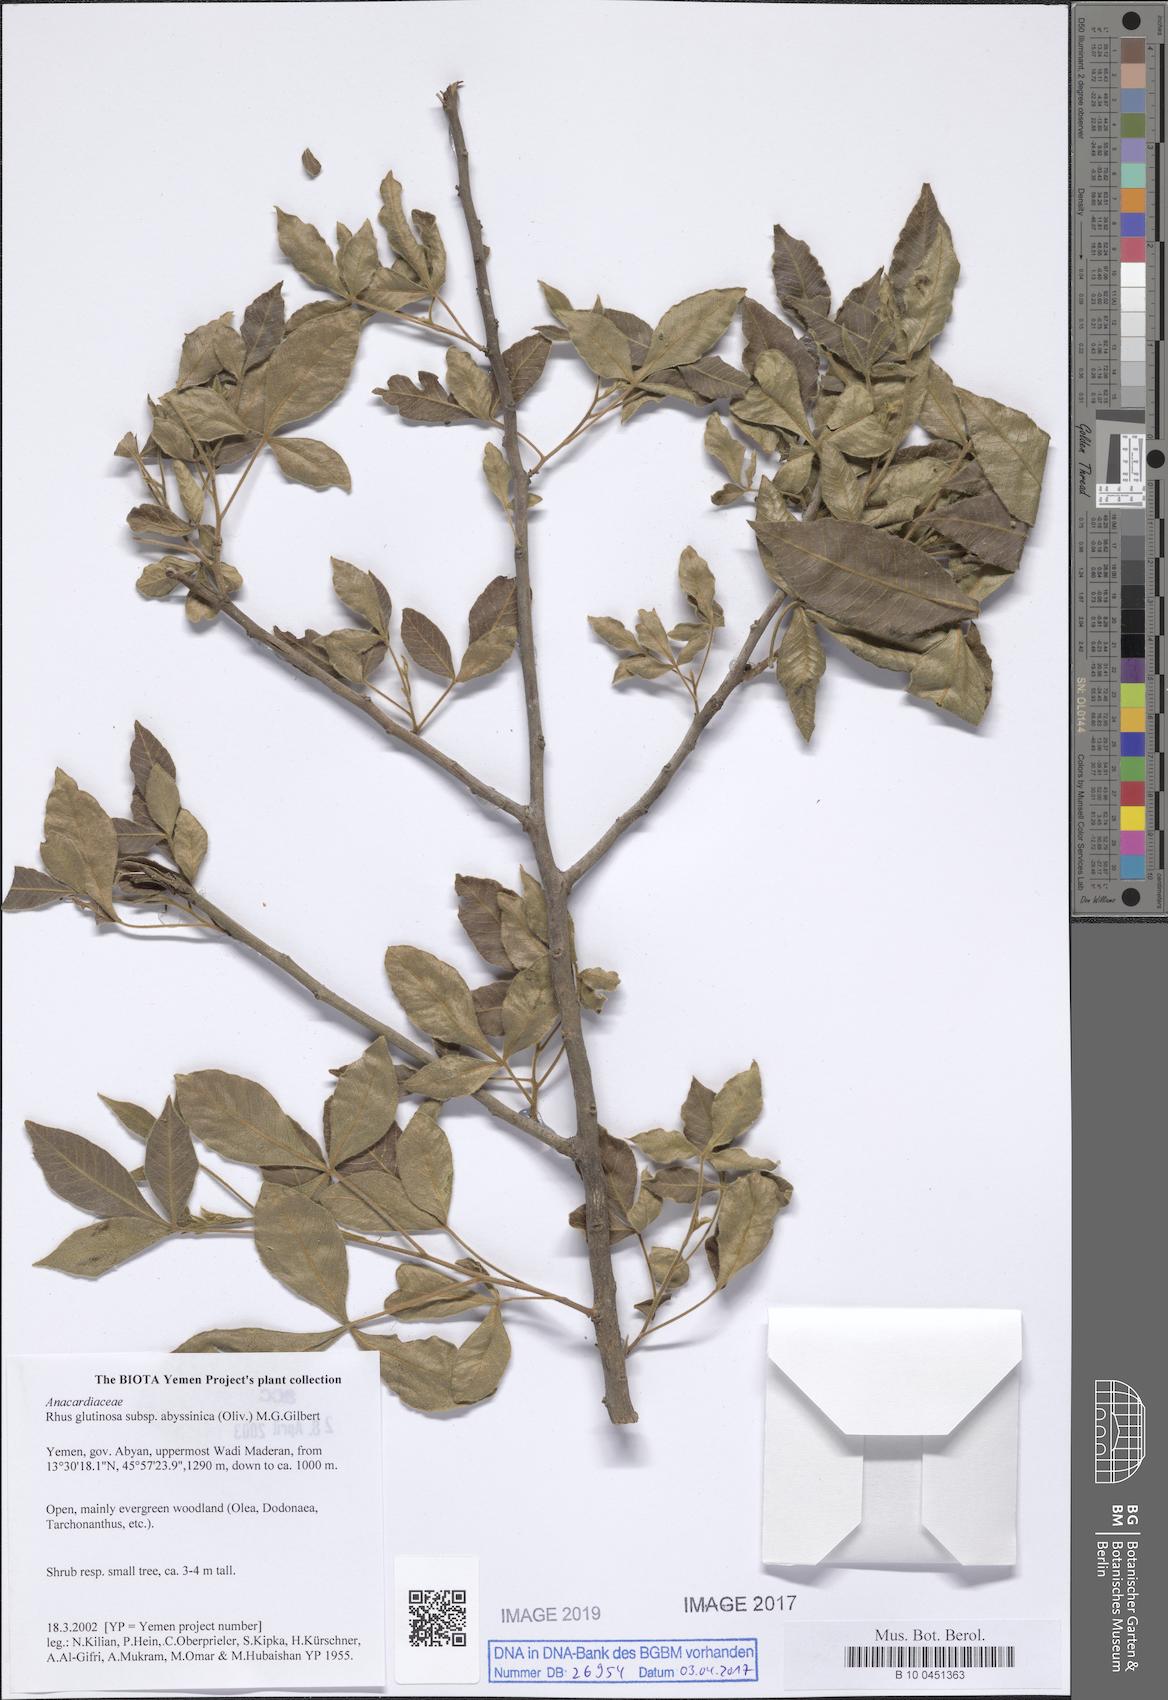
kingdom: Plantae
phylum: Tracheophyta
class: Magnoliopsida
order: Sapindales
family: Anacardiaceae
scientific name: Anacardiaceae
